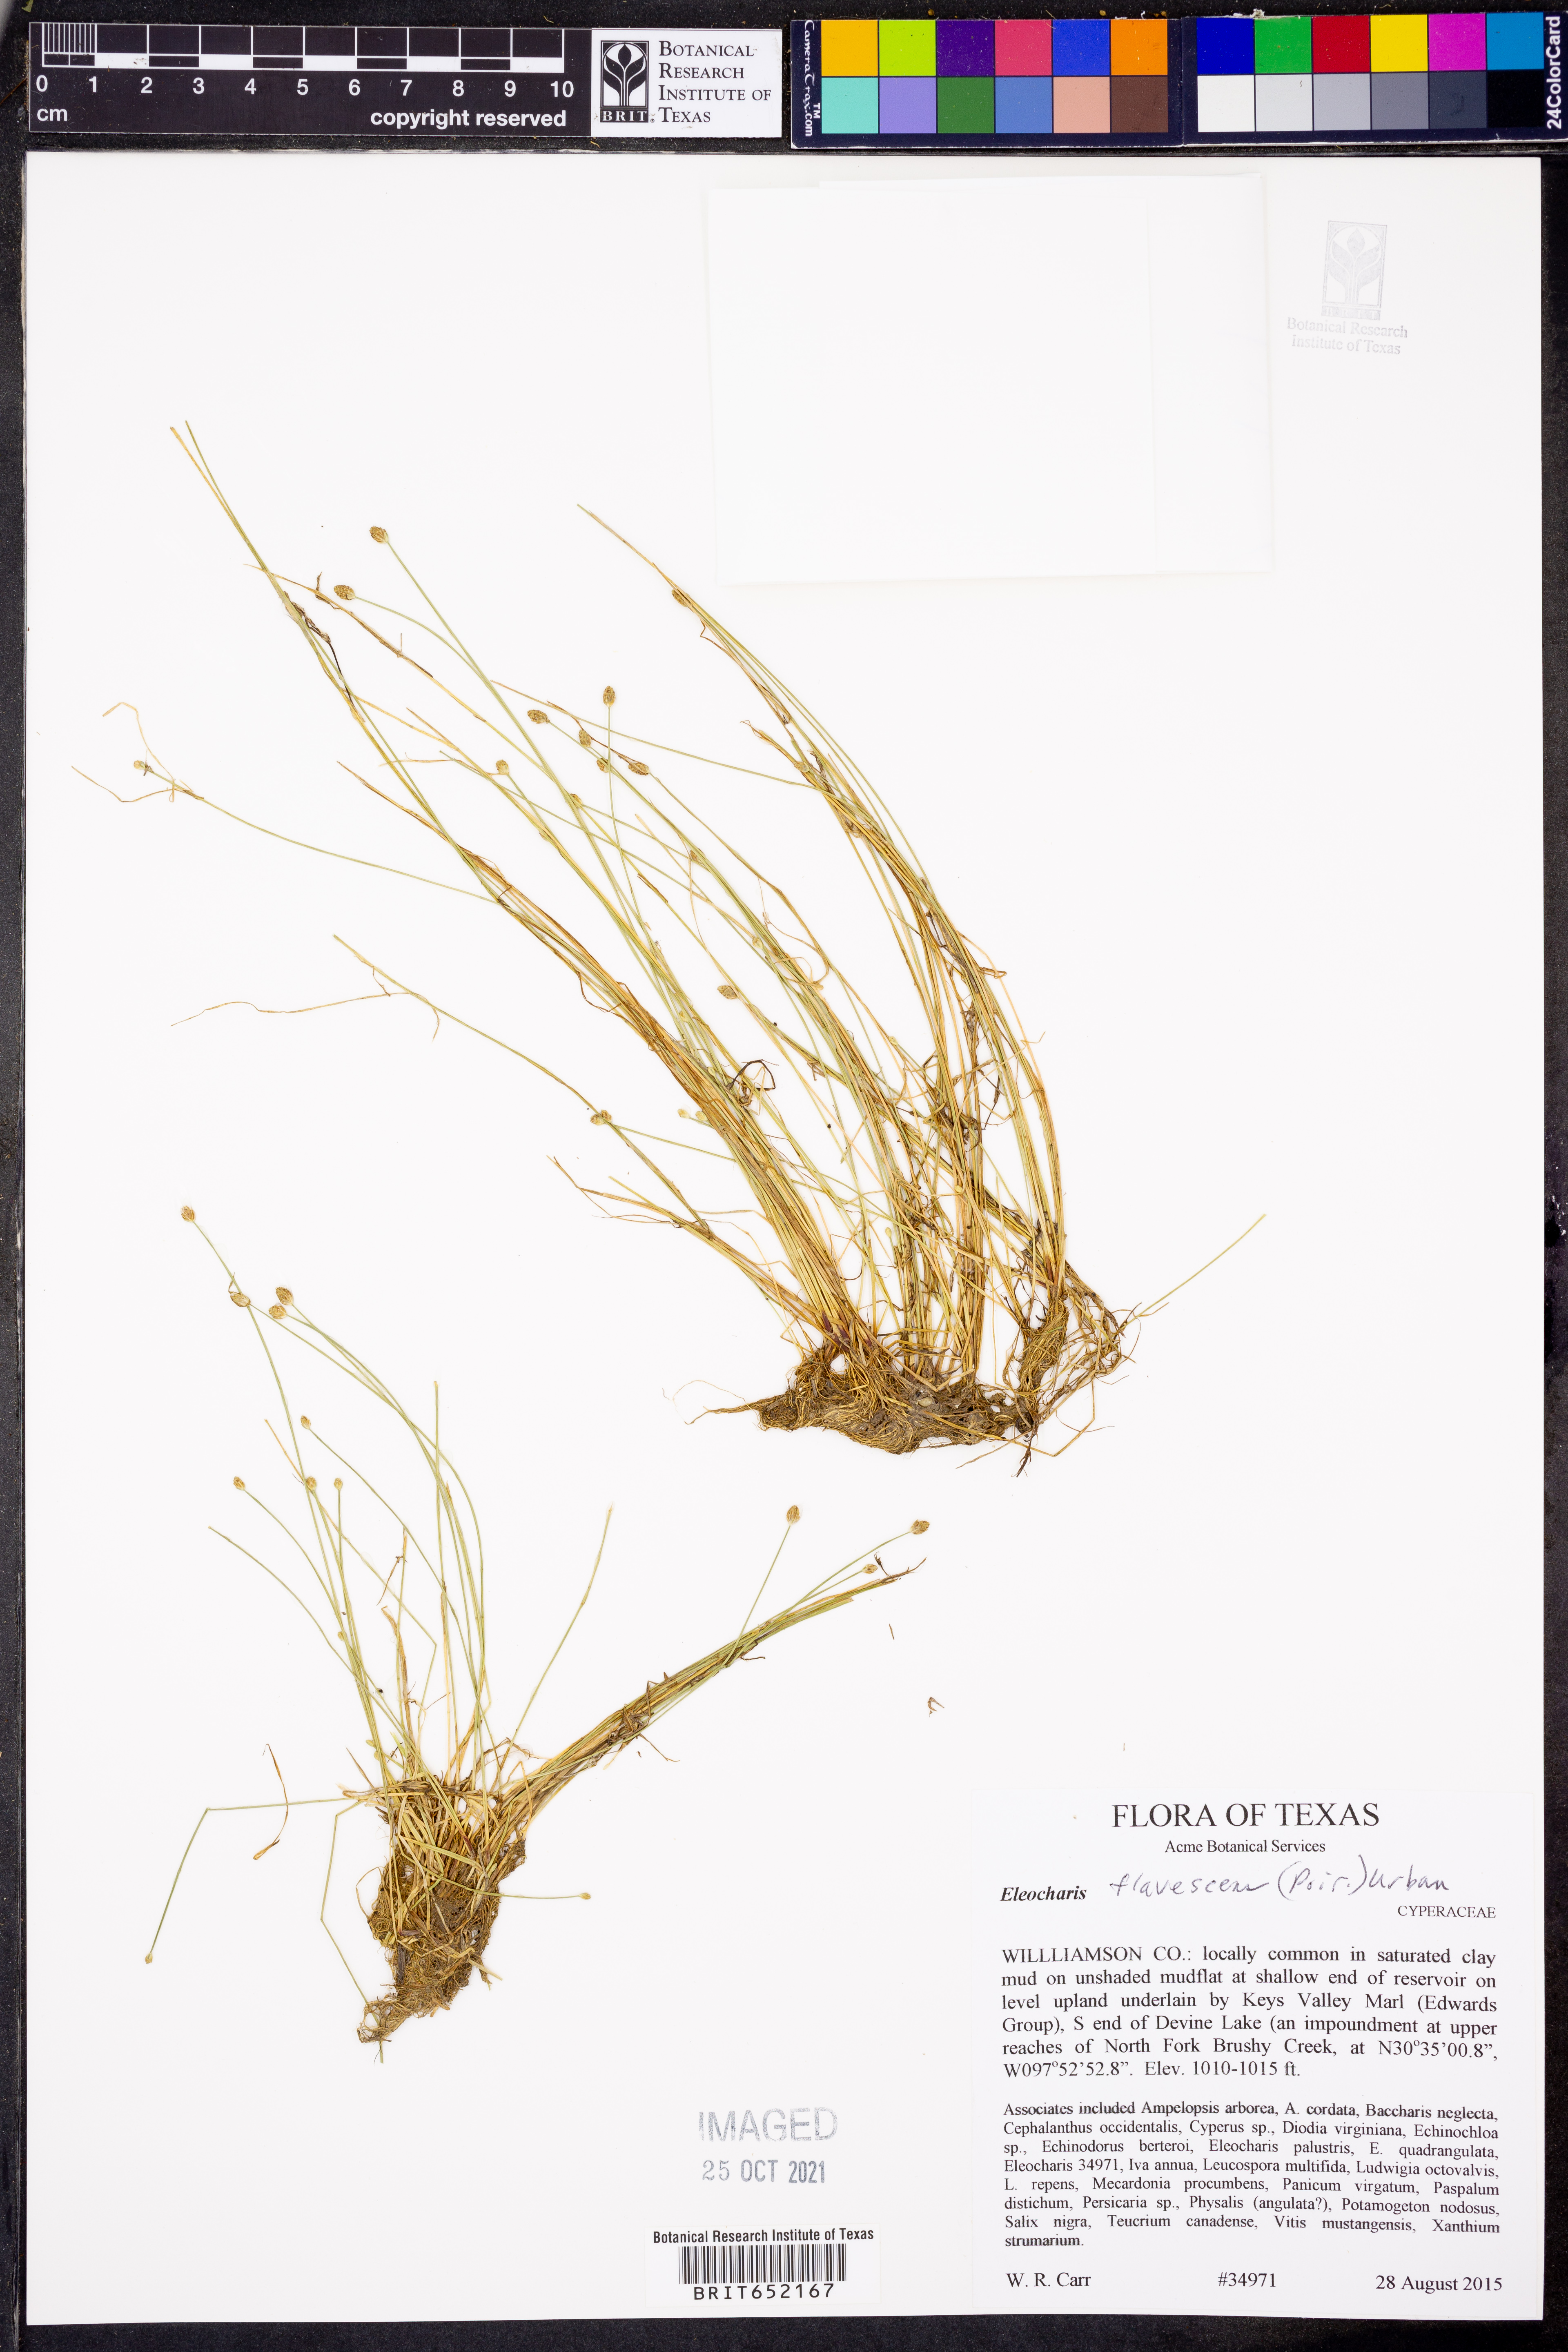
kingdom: Plantae
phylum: Tracheophyta
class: Liliopsida
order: Poales
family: Cyperaceae
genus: Eleocharis
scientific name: Eleocharis flavescens
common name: Yellow spikerush
